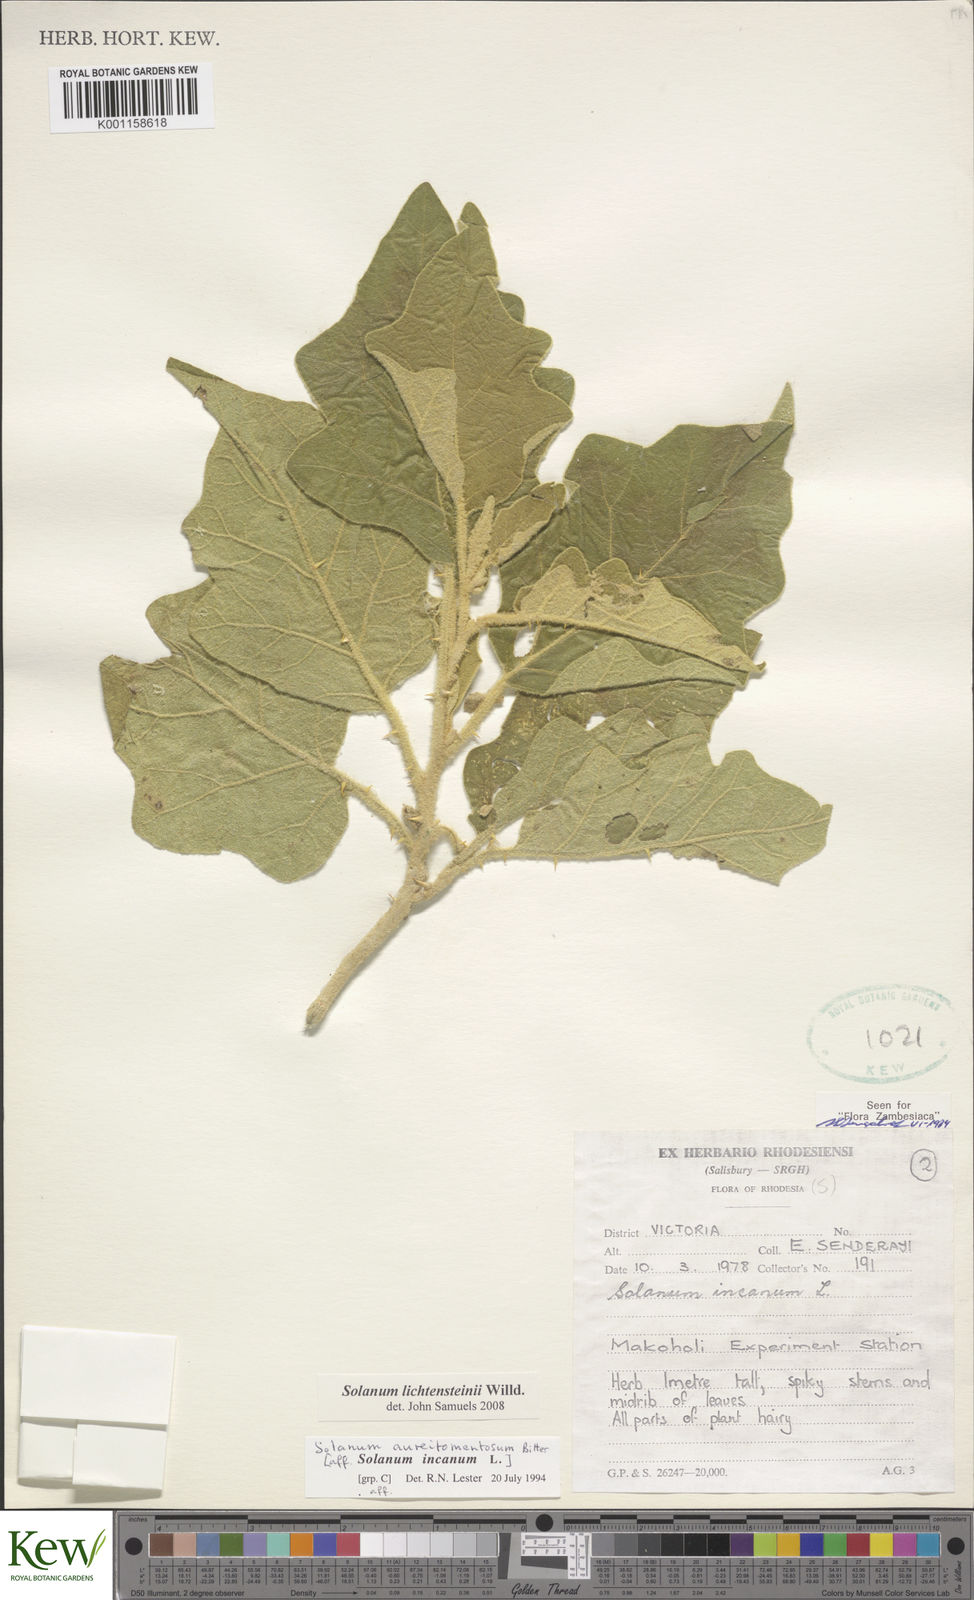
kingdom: Plantae
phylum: Tracheophyta
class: Magnoliopsida
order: Solanales
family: Solanaceae
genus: Solanum
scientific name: Solanum lichtensteinii
